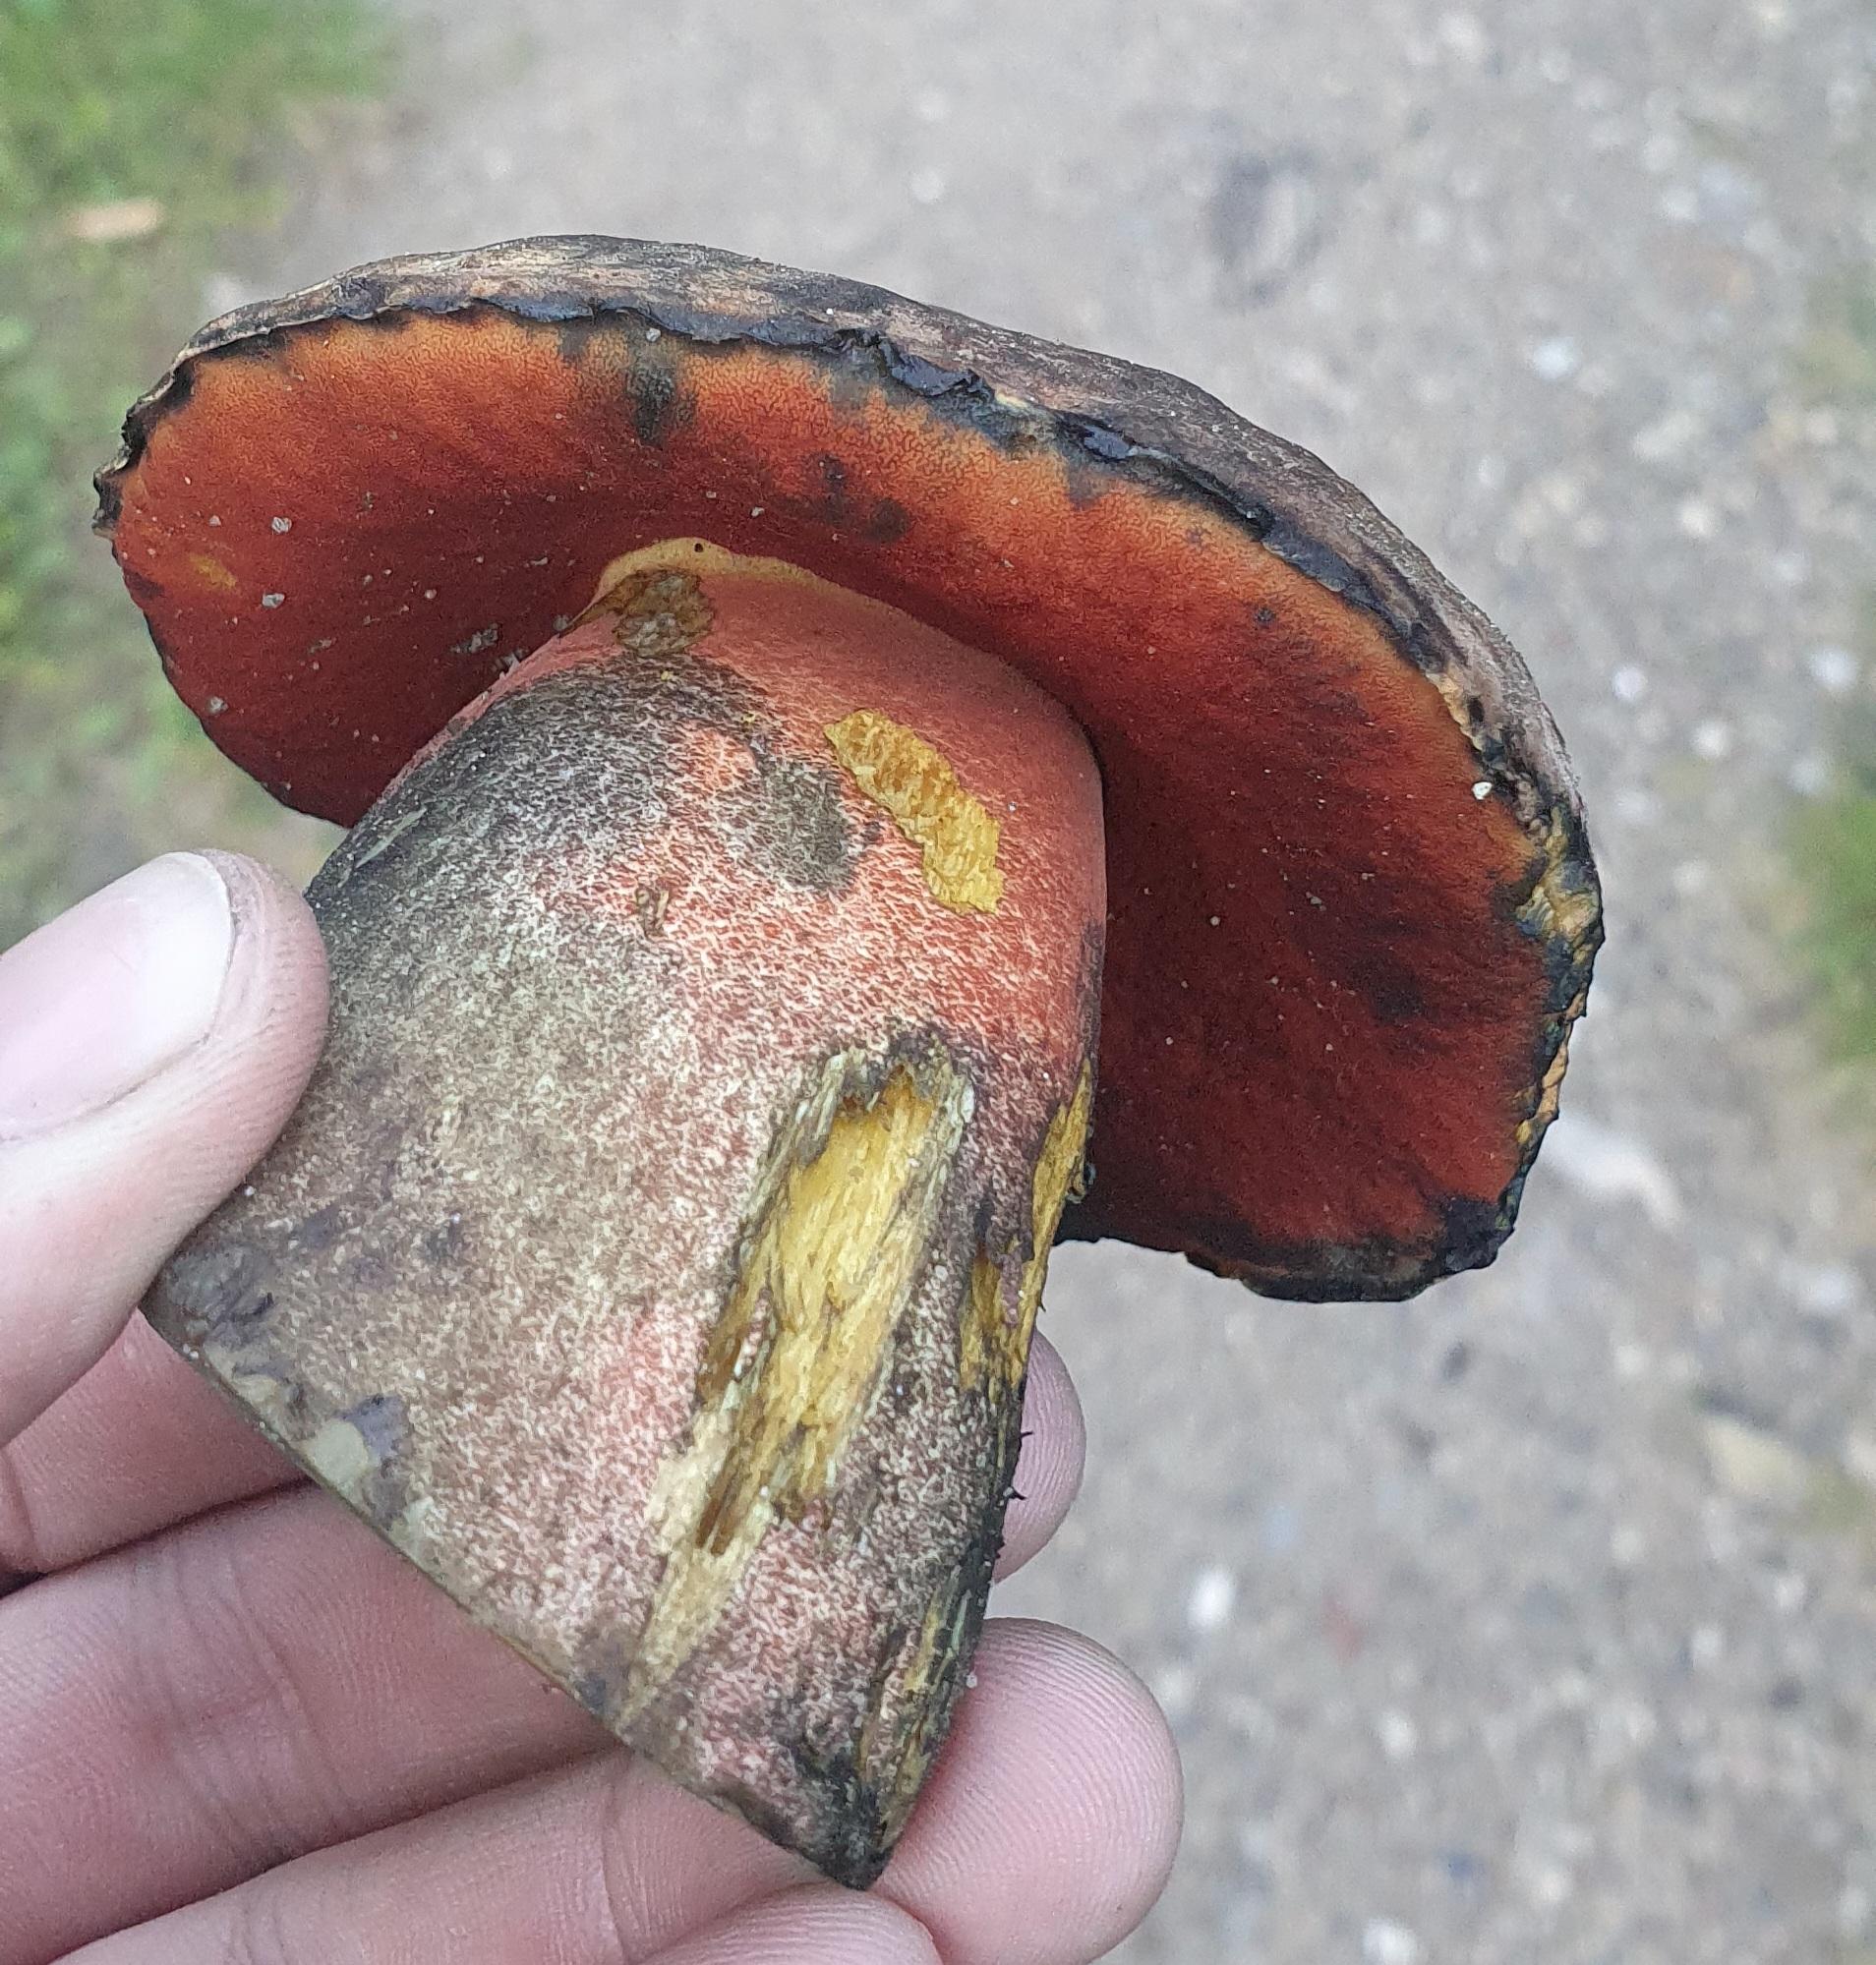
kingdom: Fungi
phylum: Basidiomycota
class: Agaricomycetes
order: Boletales
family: Boletaceae
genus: Neoboletus
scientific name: Neoboletus erythropus
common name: punktstokket indigorørhat
